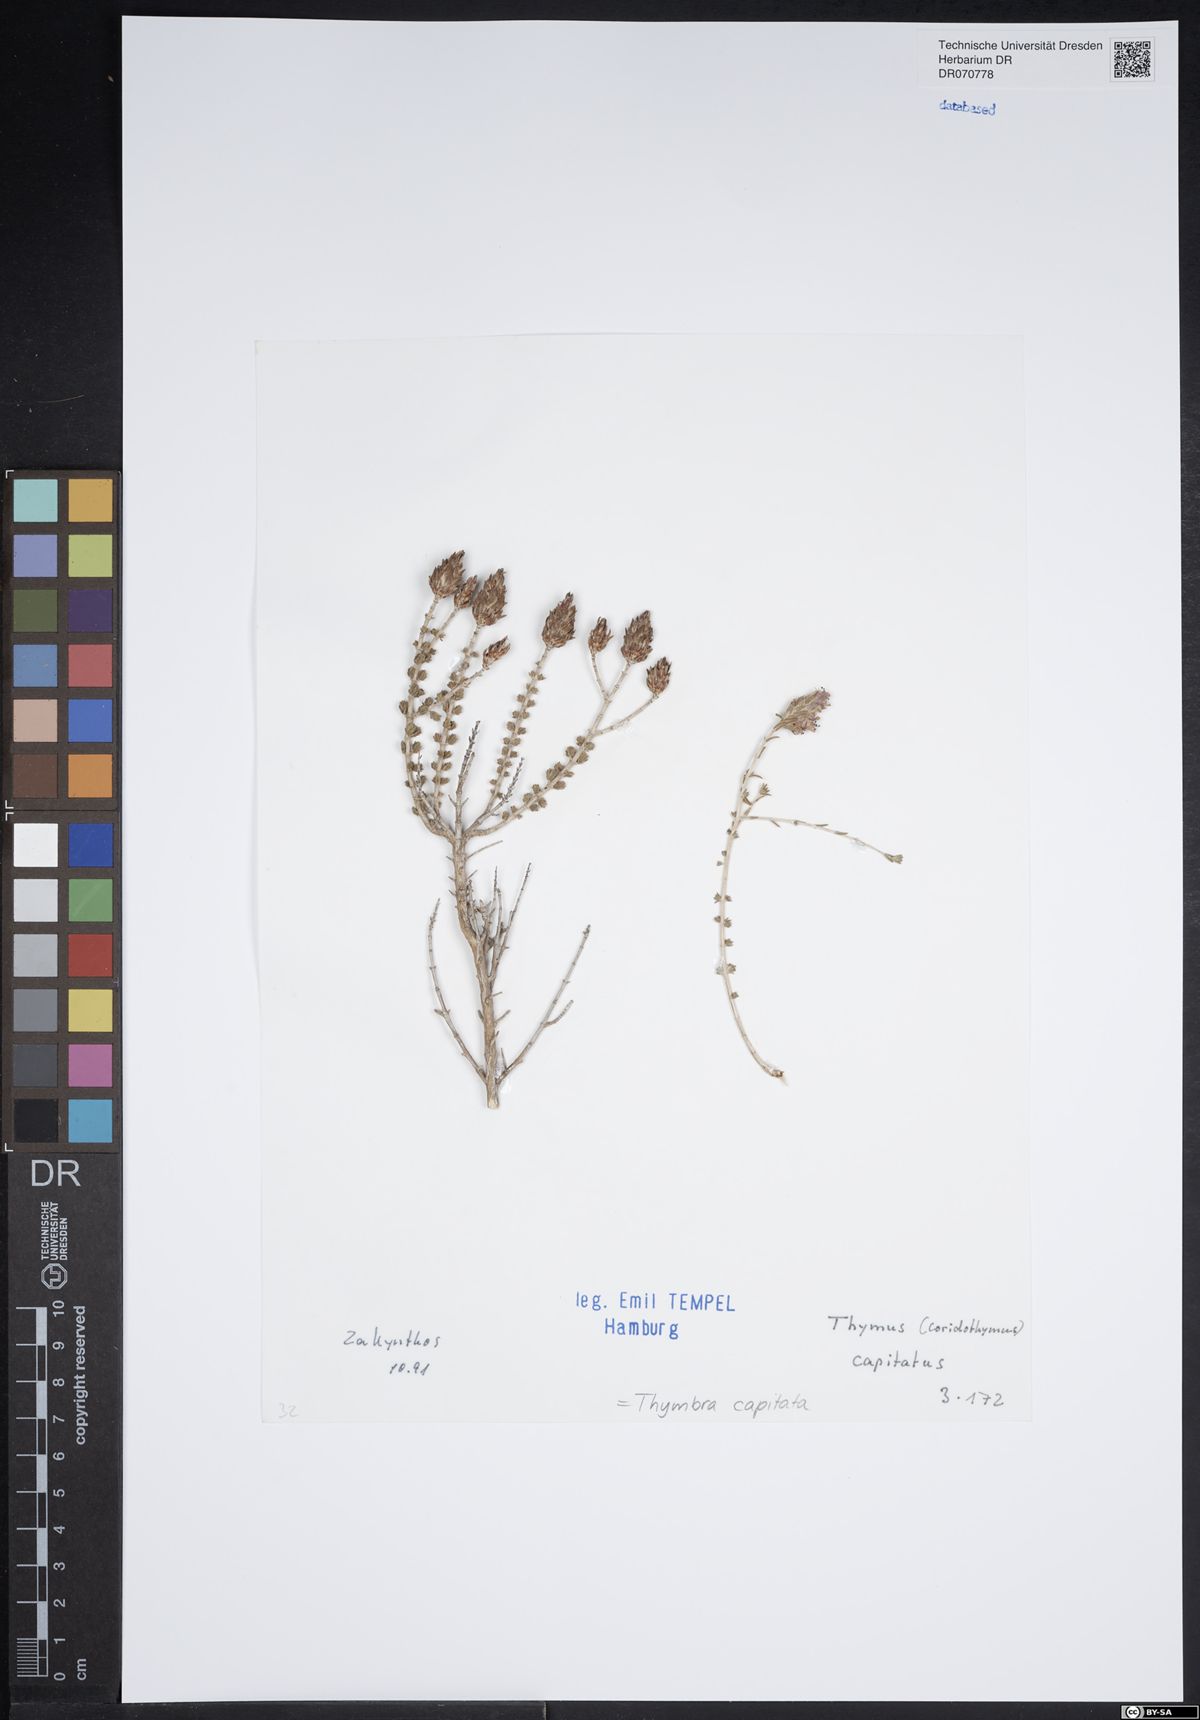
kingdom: Plantae
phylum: Tracheophyta
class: Magnoliopsida
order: Lamiales
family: Lamiaceae
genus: Thymbra
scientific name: Thymbra capitata
